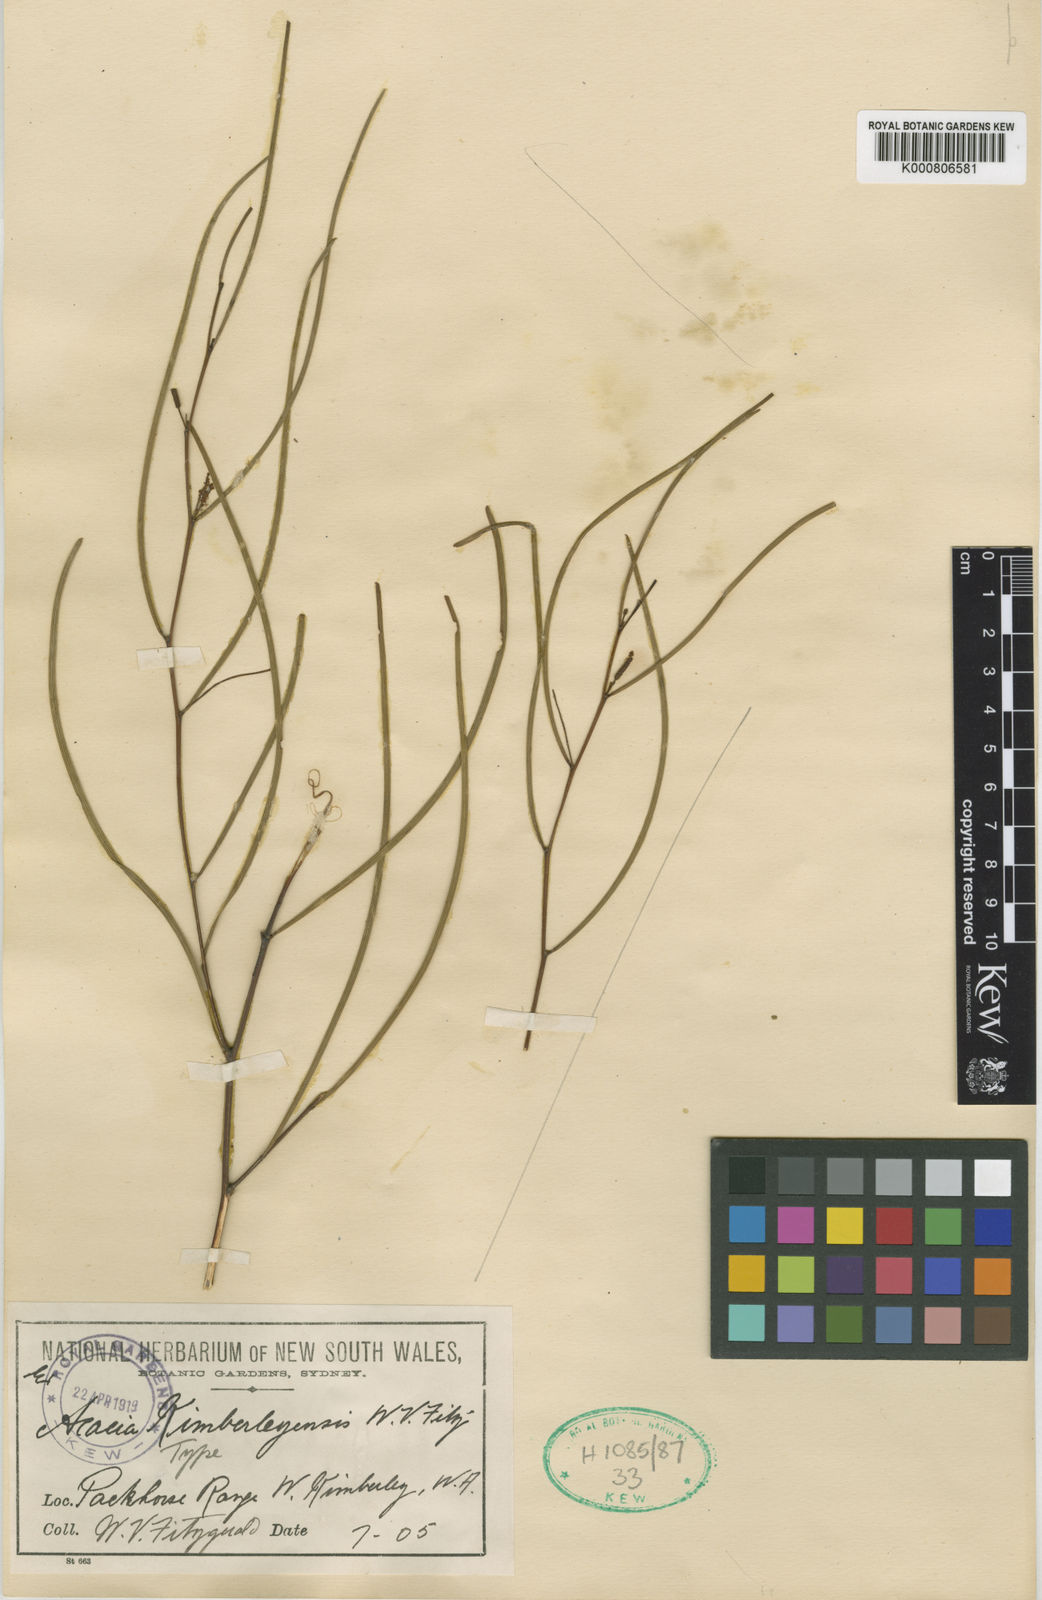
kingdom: Plantae
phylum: Tracheophyta
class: Magnoliopsida
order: Fabales
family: Fabaceae
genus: Acacia
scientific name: Acacia kimberleyensis
